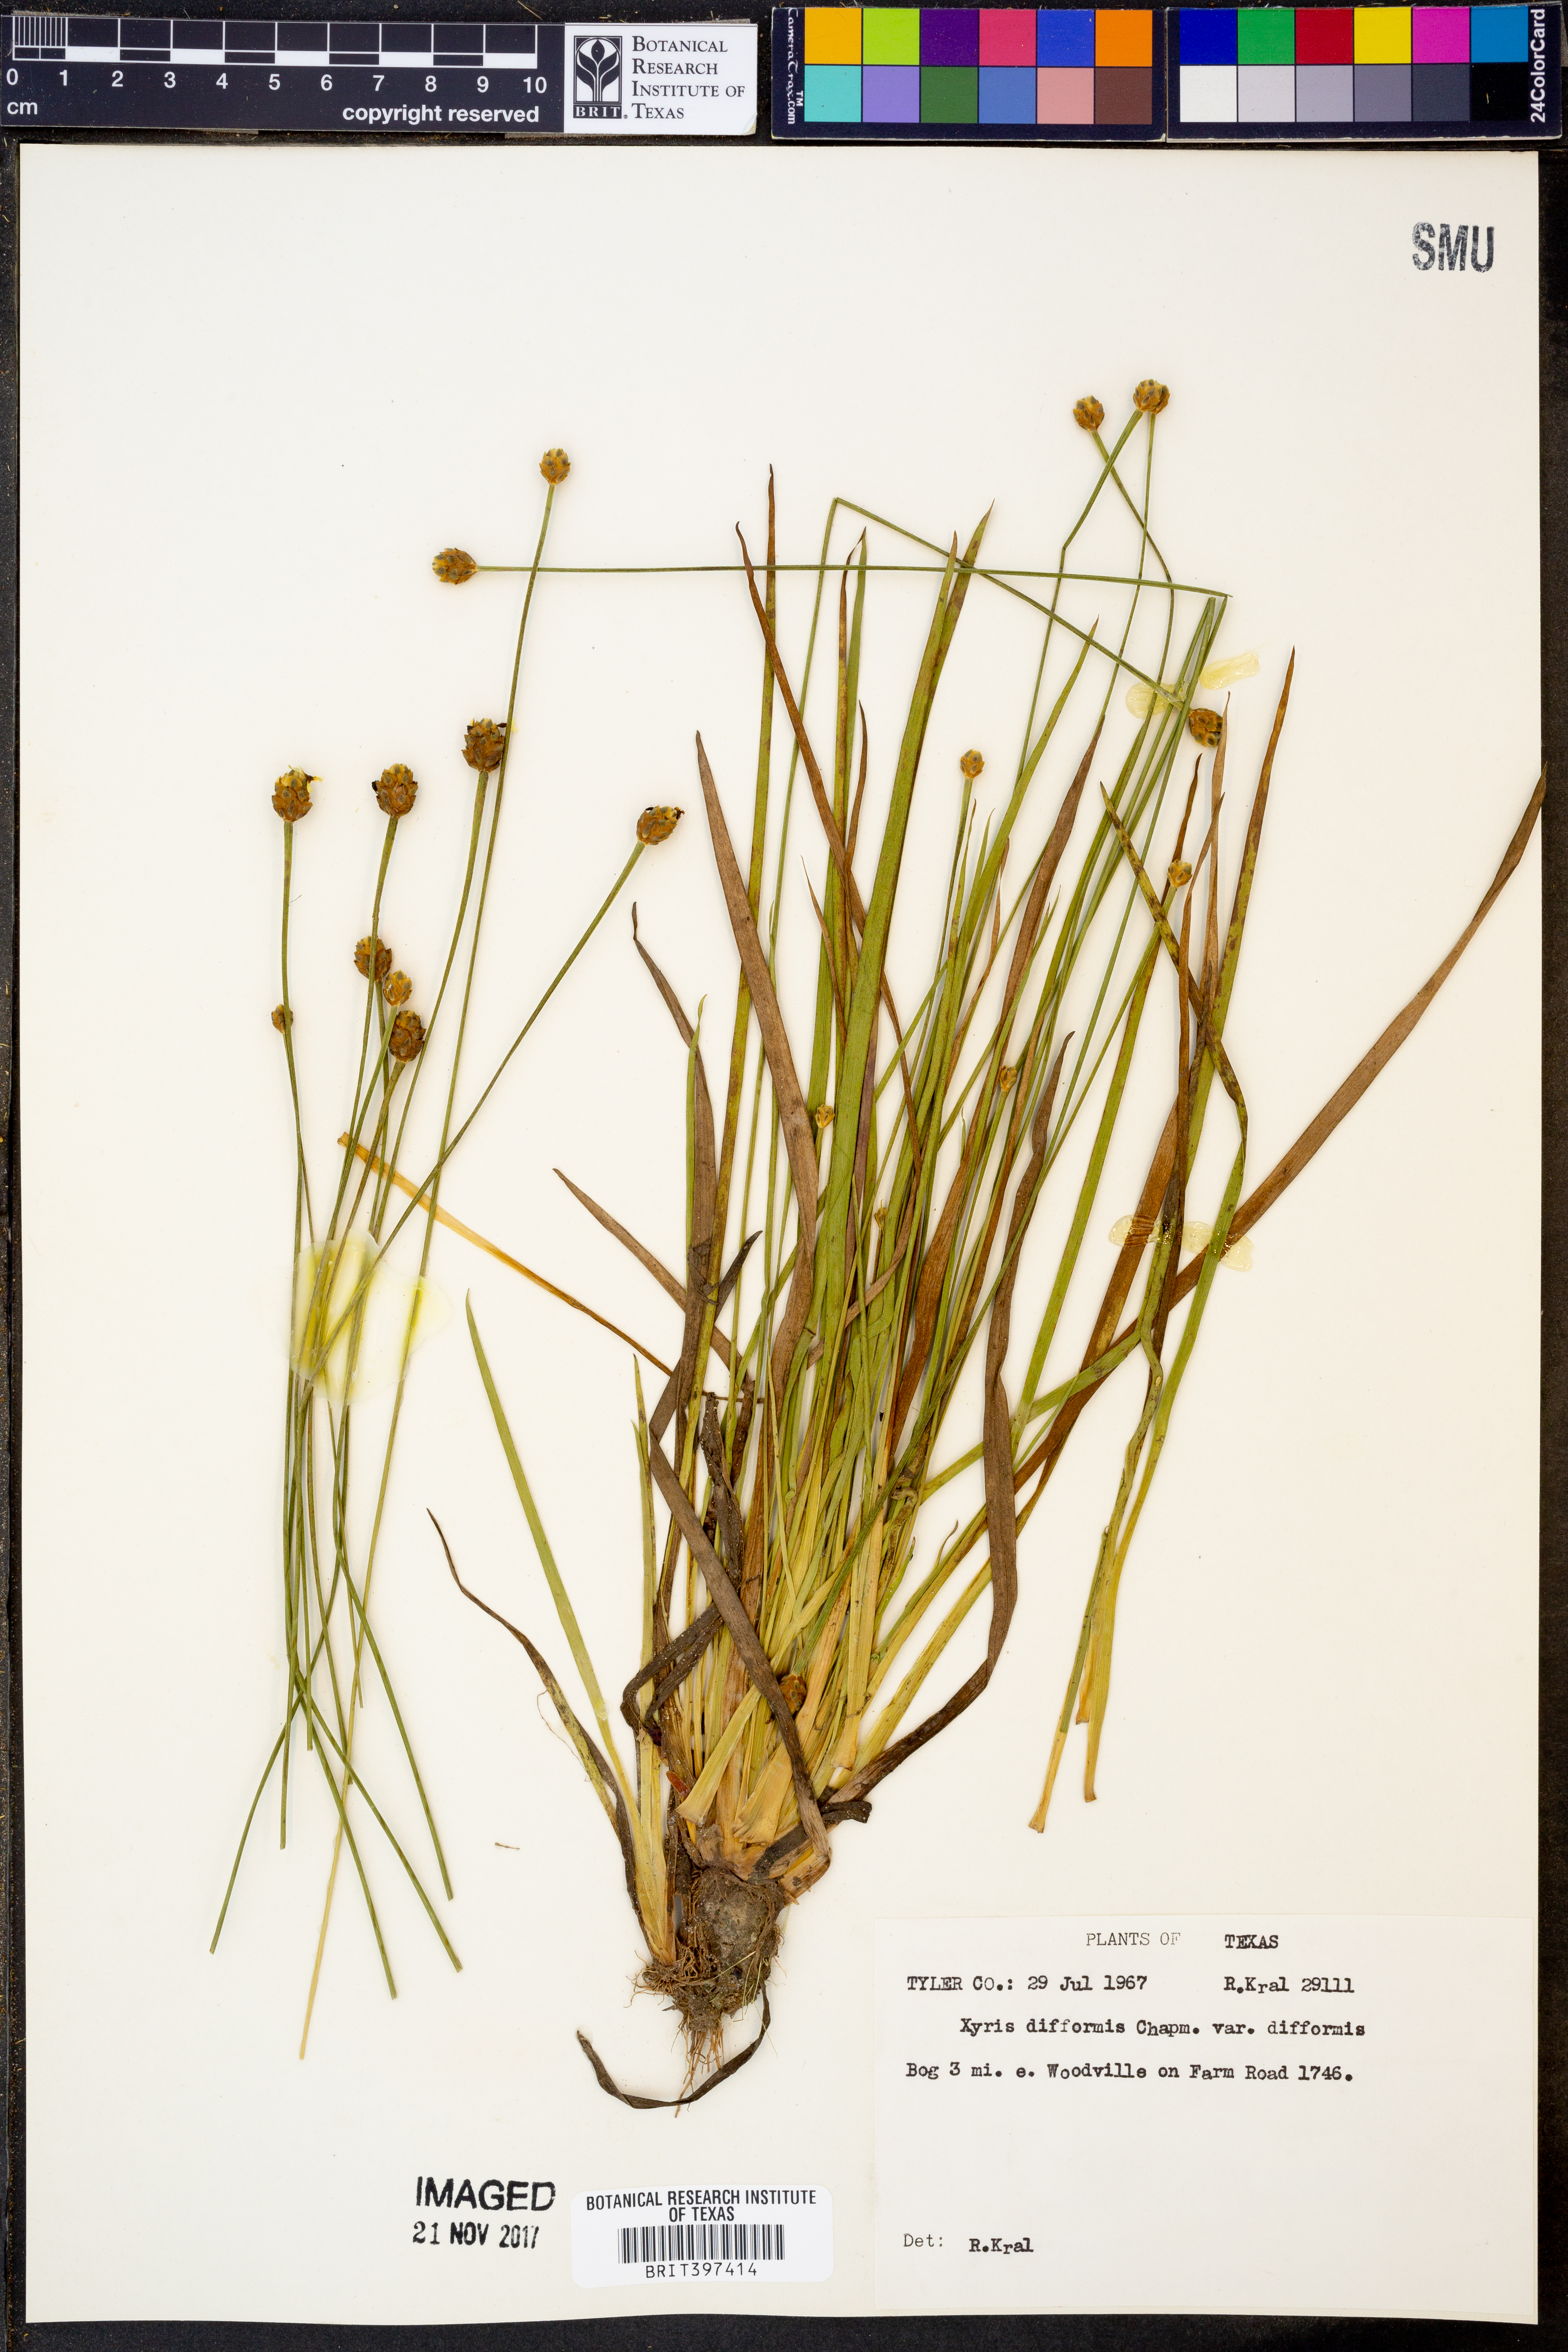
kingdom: Plantae
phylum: Tracheophyta
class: Liliopsida
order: Poales
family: Xyridaceae
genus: Xyris
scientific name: Xyris difformis
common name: Bog yellow-eyed-grass
